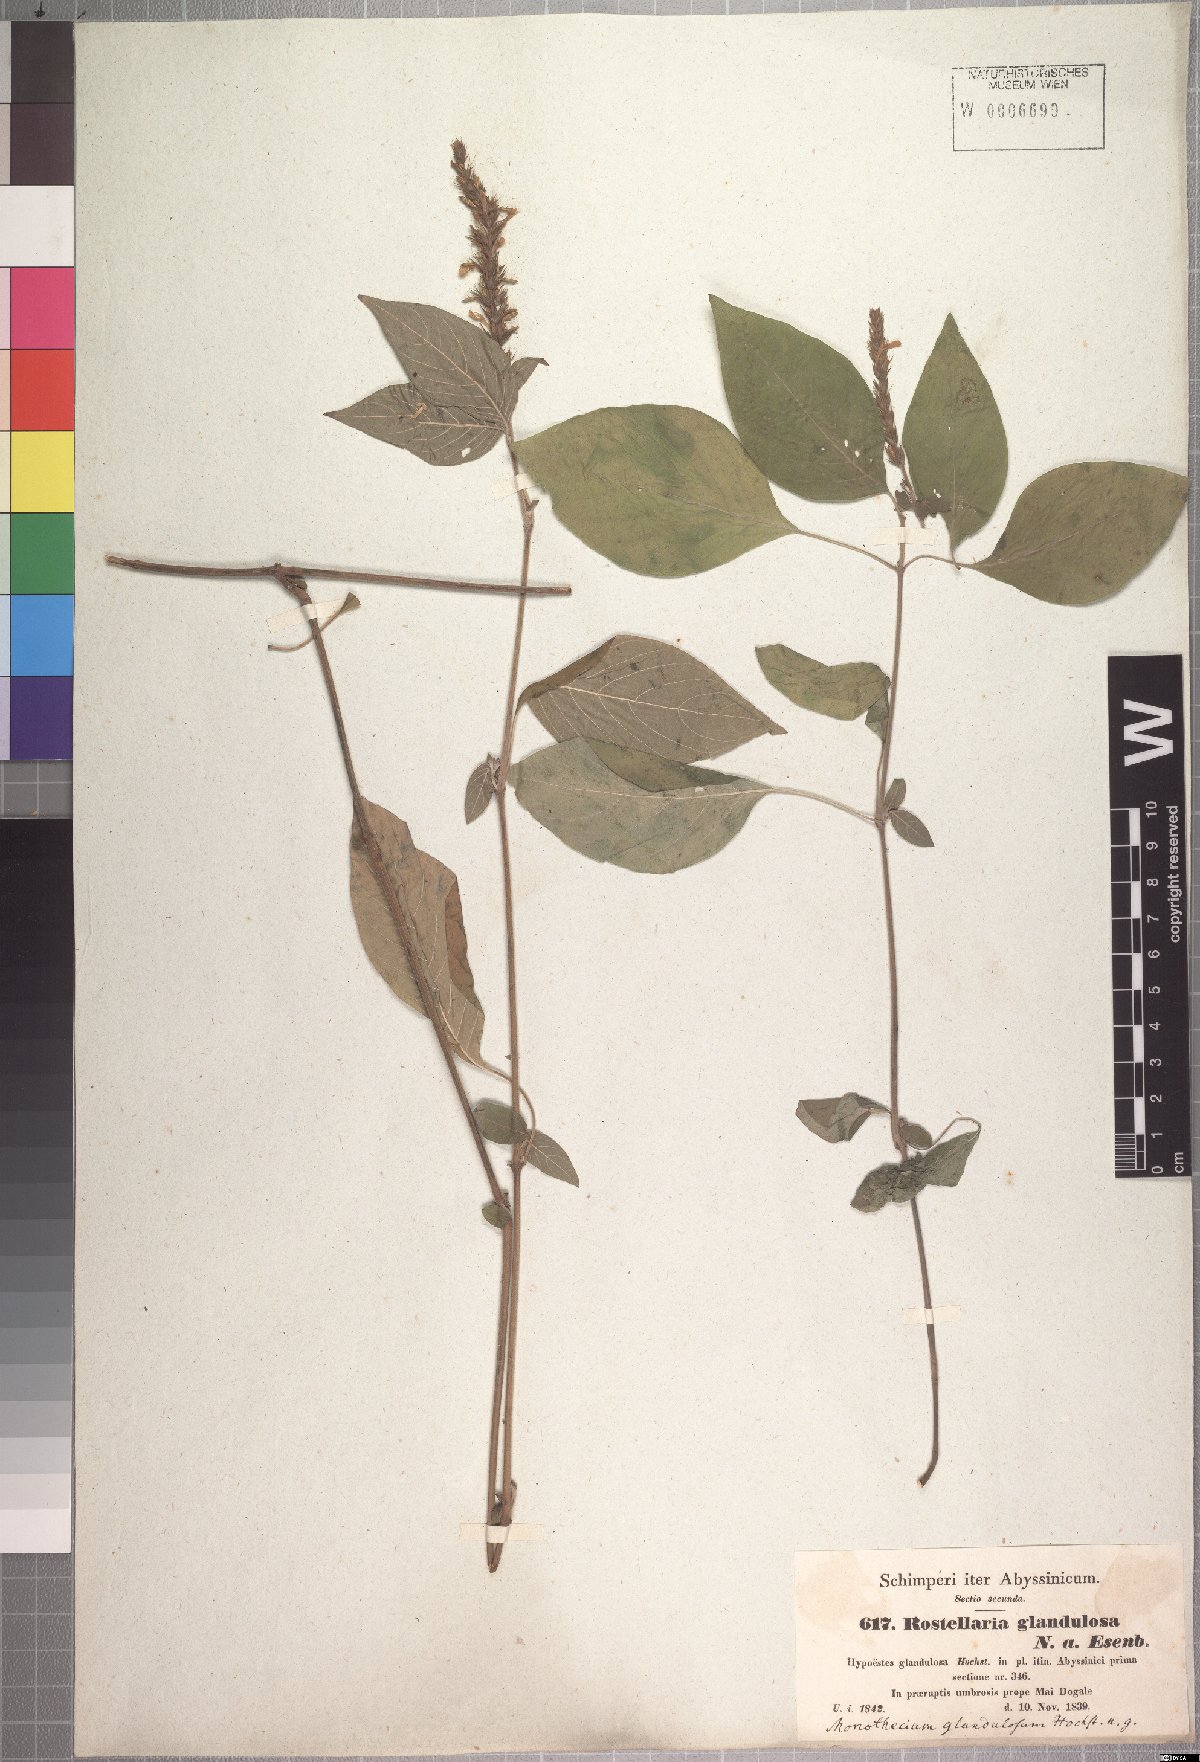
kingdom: Plantae
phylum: Tracheophyta
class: Magnoliopsida
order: Lamiales
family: Acanthaceae
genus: Monothecium
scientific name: Monothecium glandulosum
